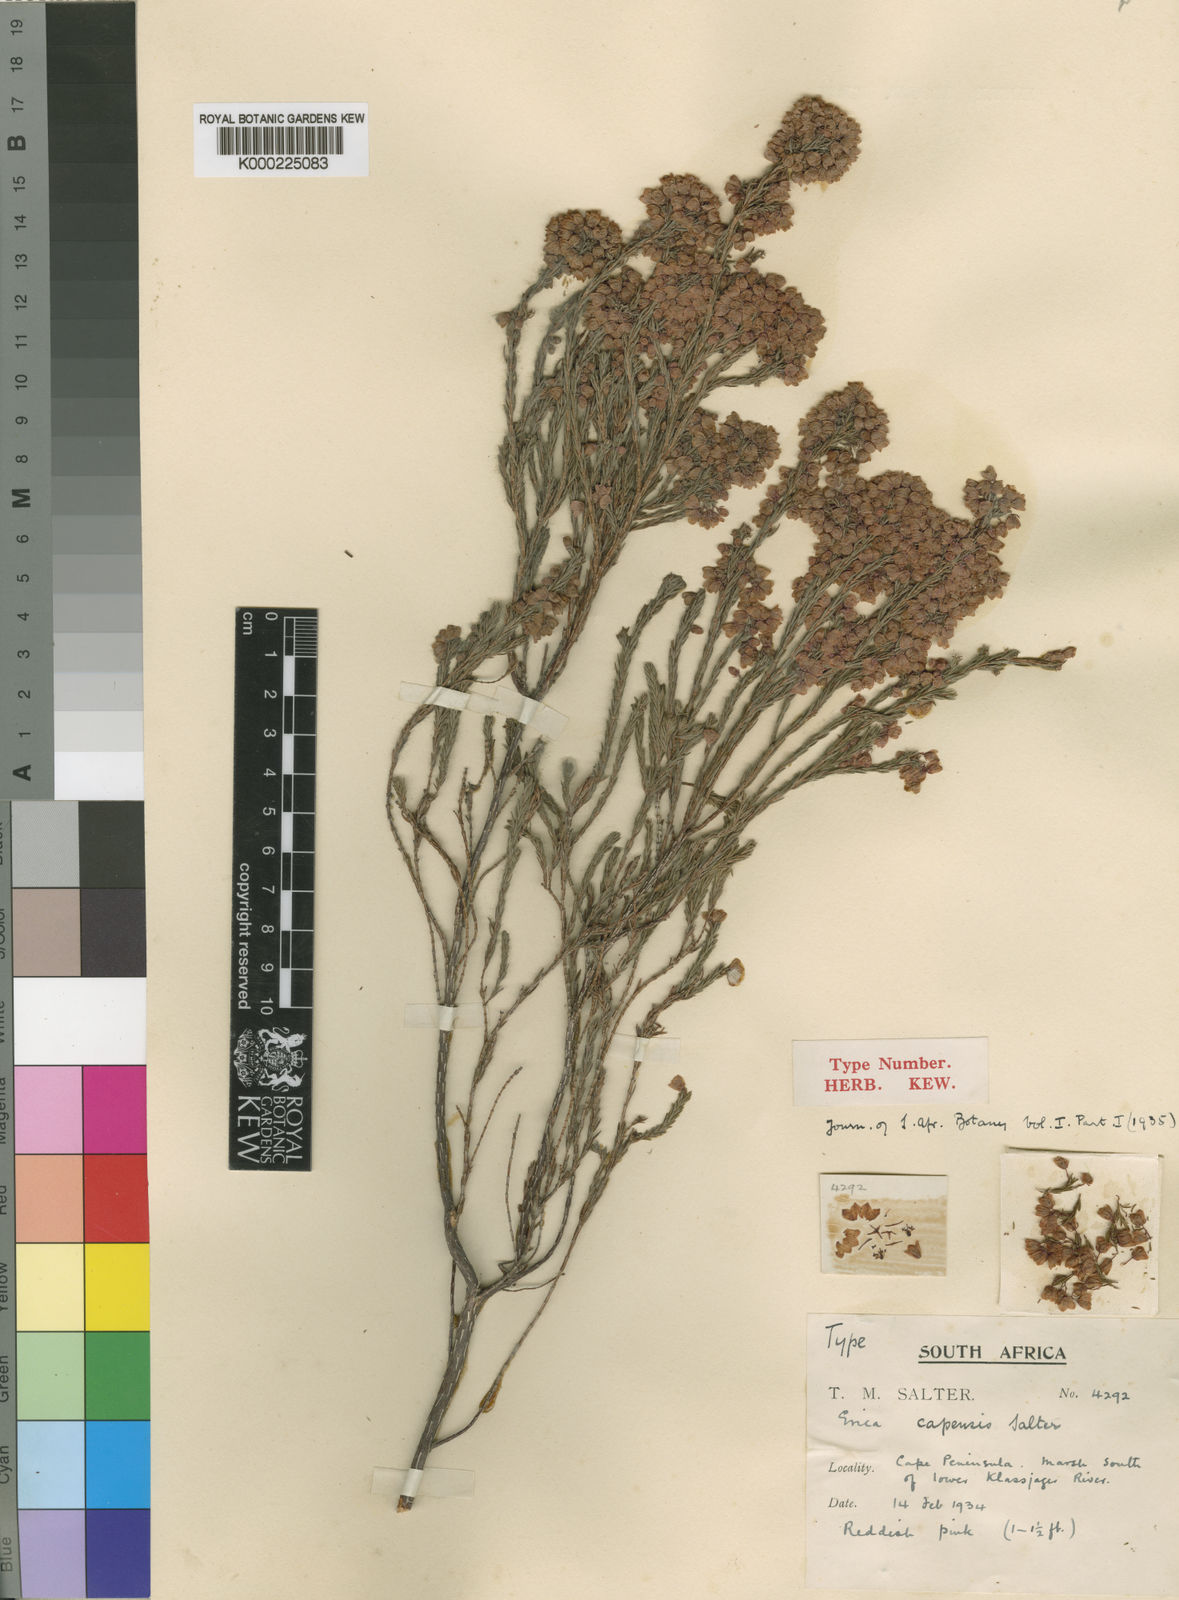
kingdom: Plantae
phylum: Tracheophyta
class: Magnoliopsida
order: Ericales
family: Ericaceae
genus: Erica
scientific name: Erica capensis
